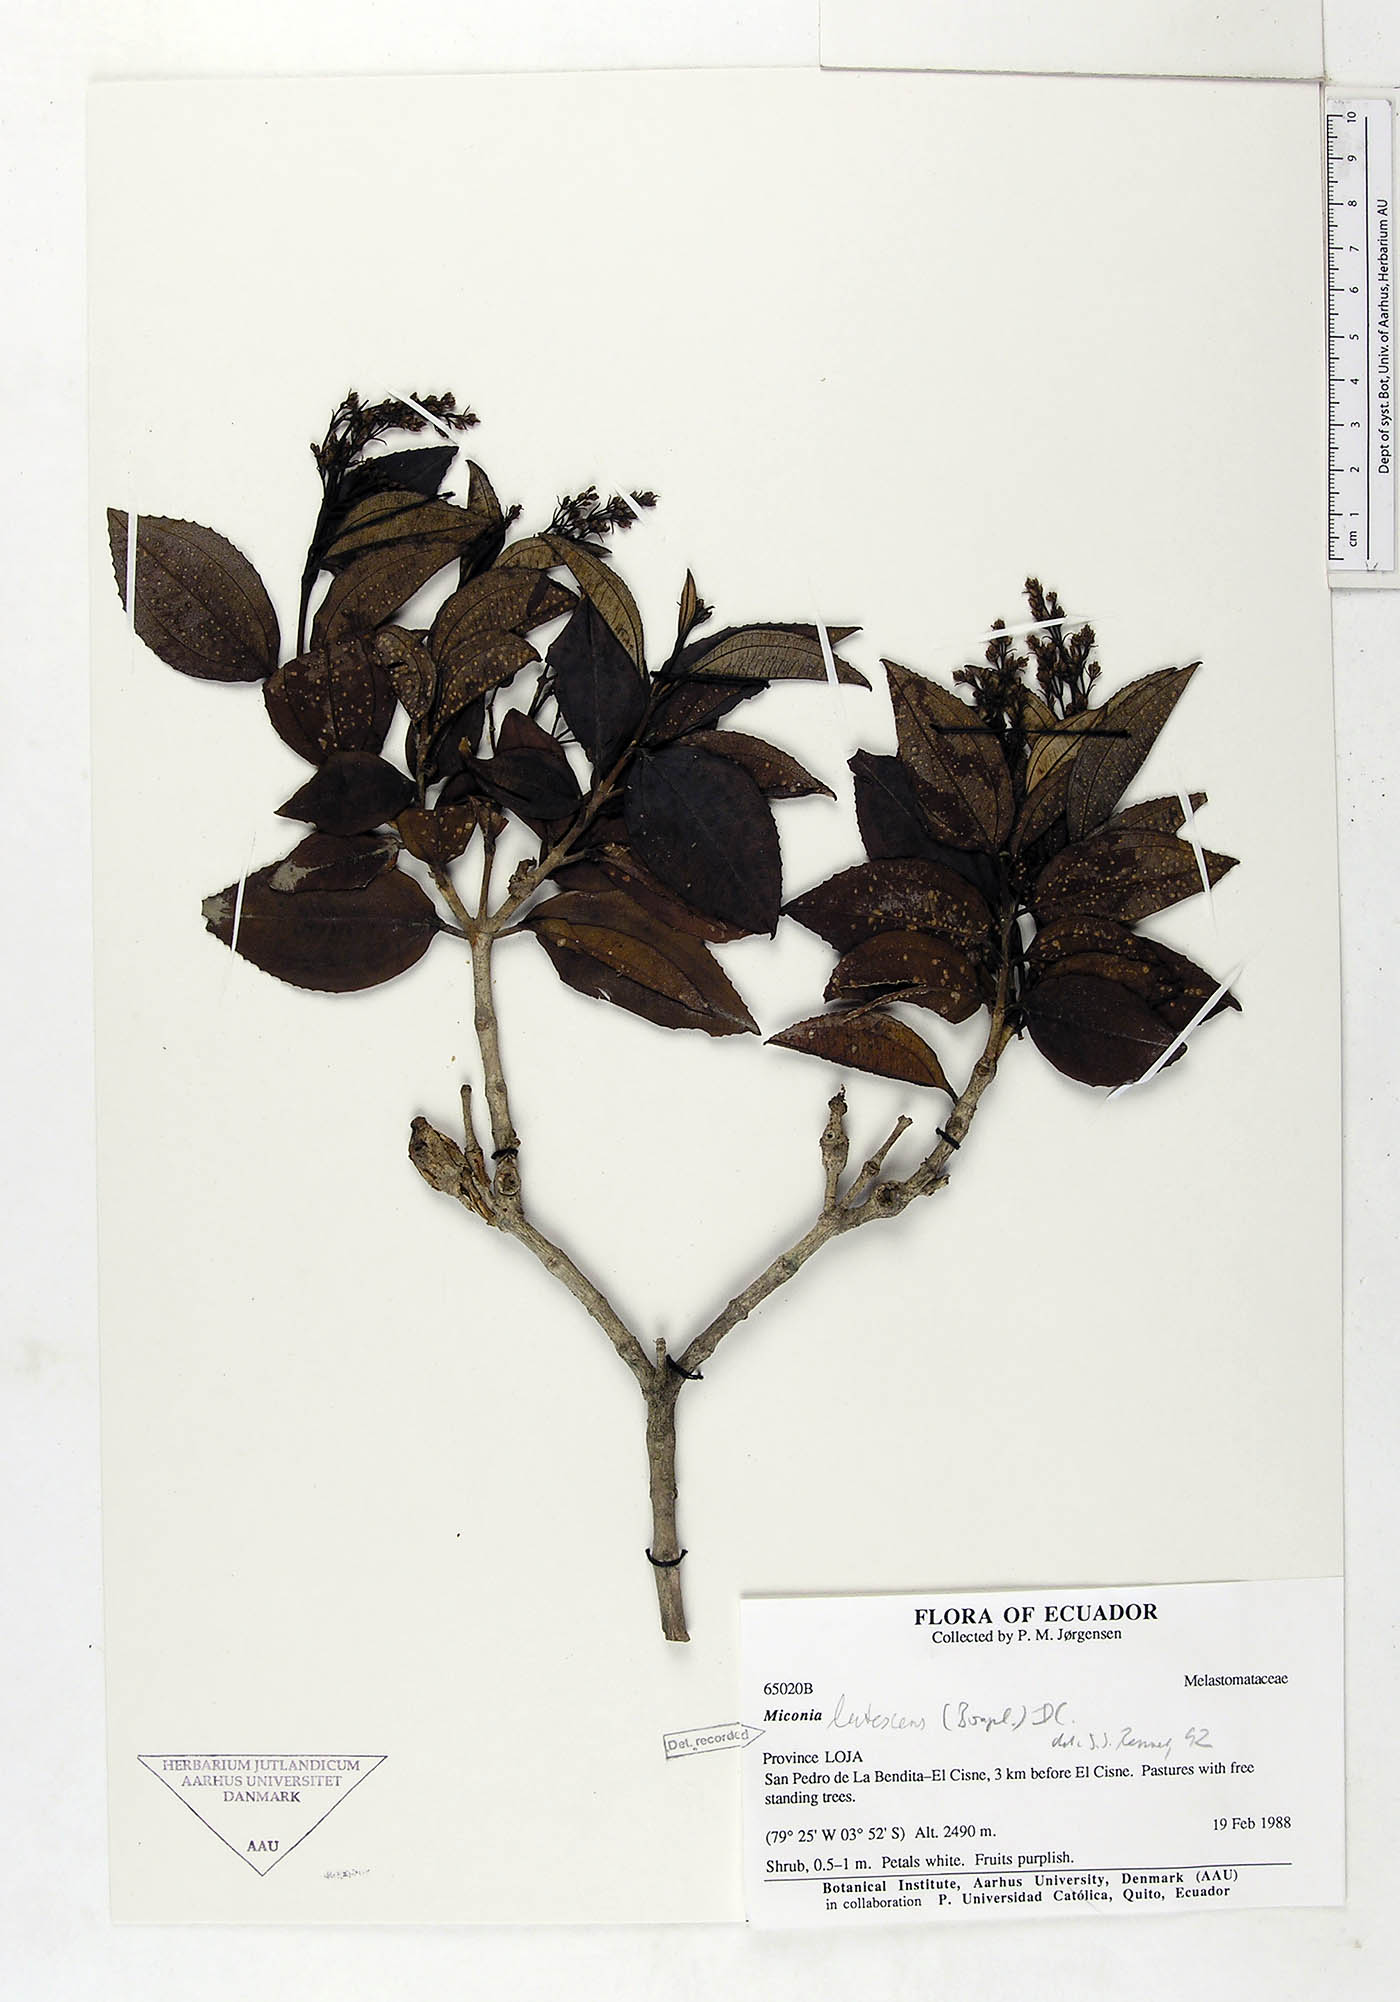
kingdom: Plantae
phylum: Tracheophyta
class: Magnoliopsida
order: Myrtales
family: Melastomataceae
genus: Miconia
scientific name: Miconia lutescens
